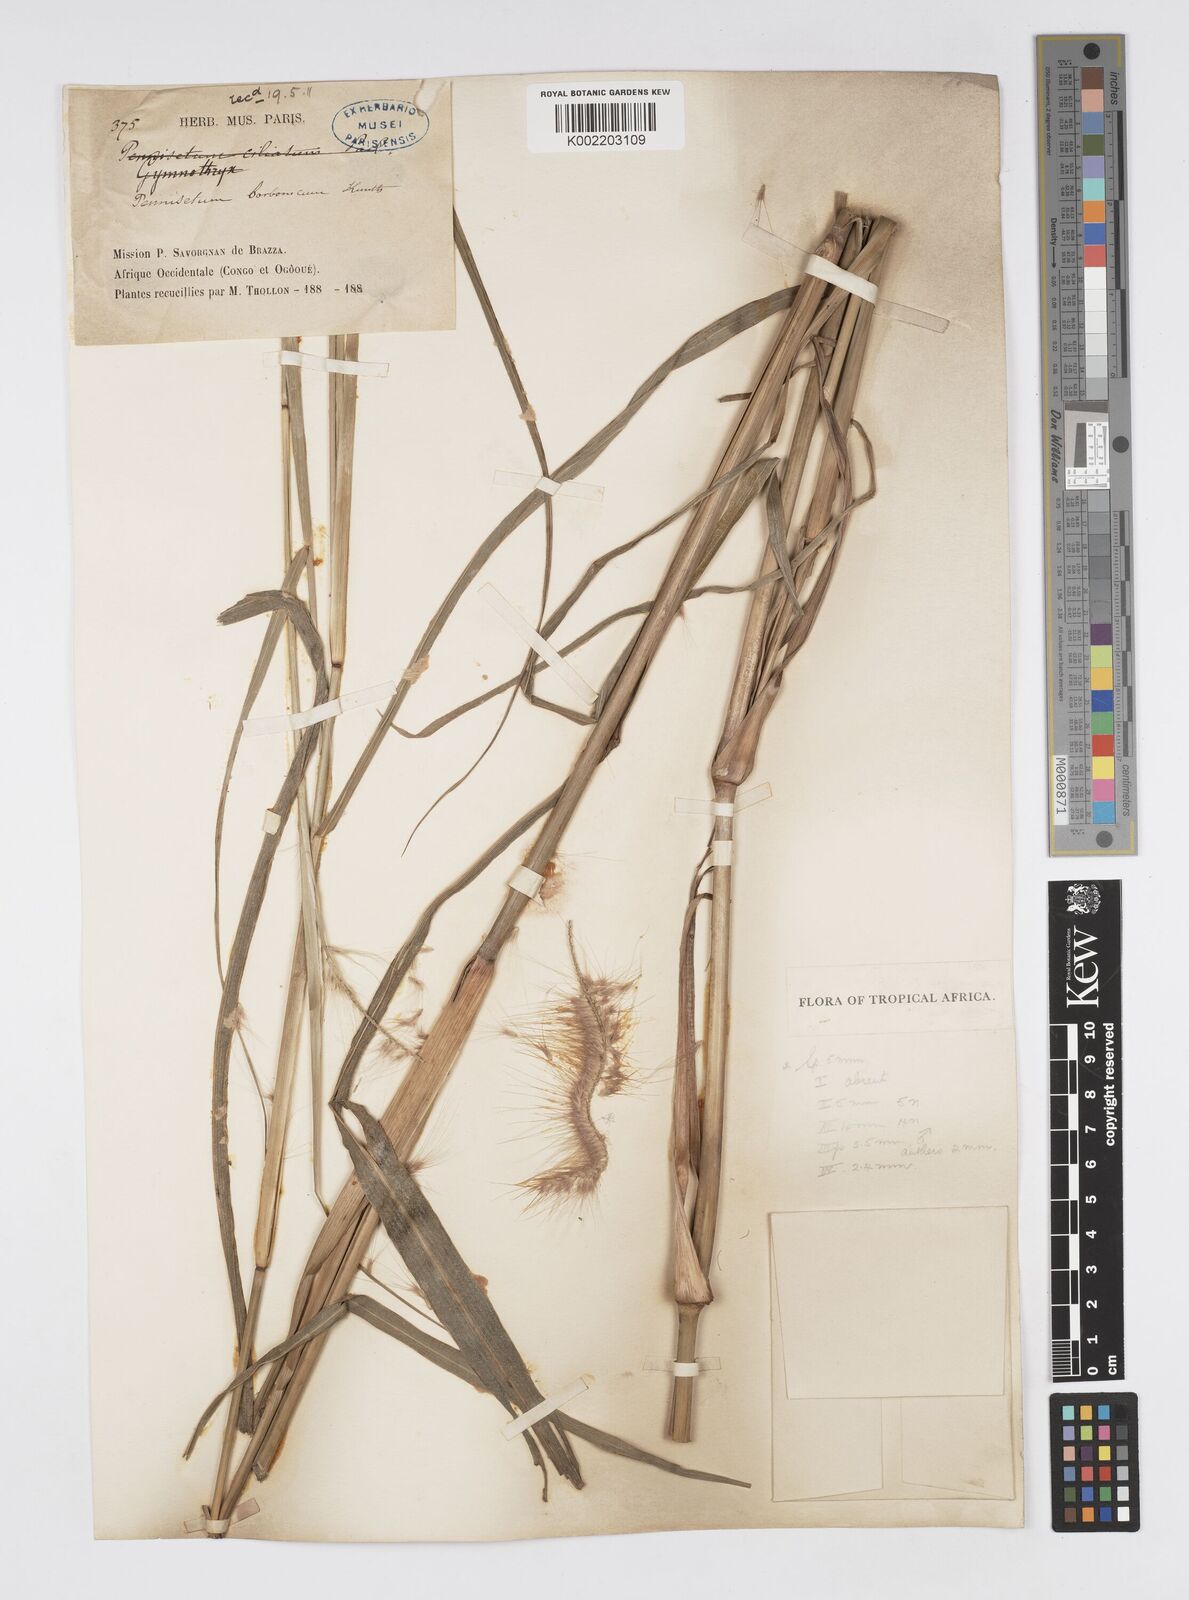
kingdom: Plantae
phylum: Tracheophyta
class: Liliopsida
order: Poales
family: Poaceae
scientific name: Poaceae
